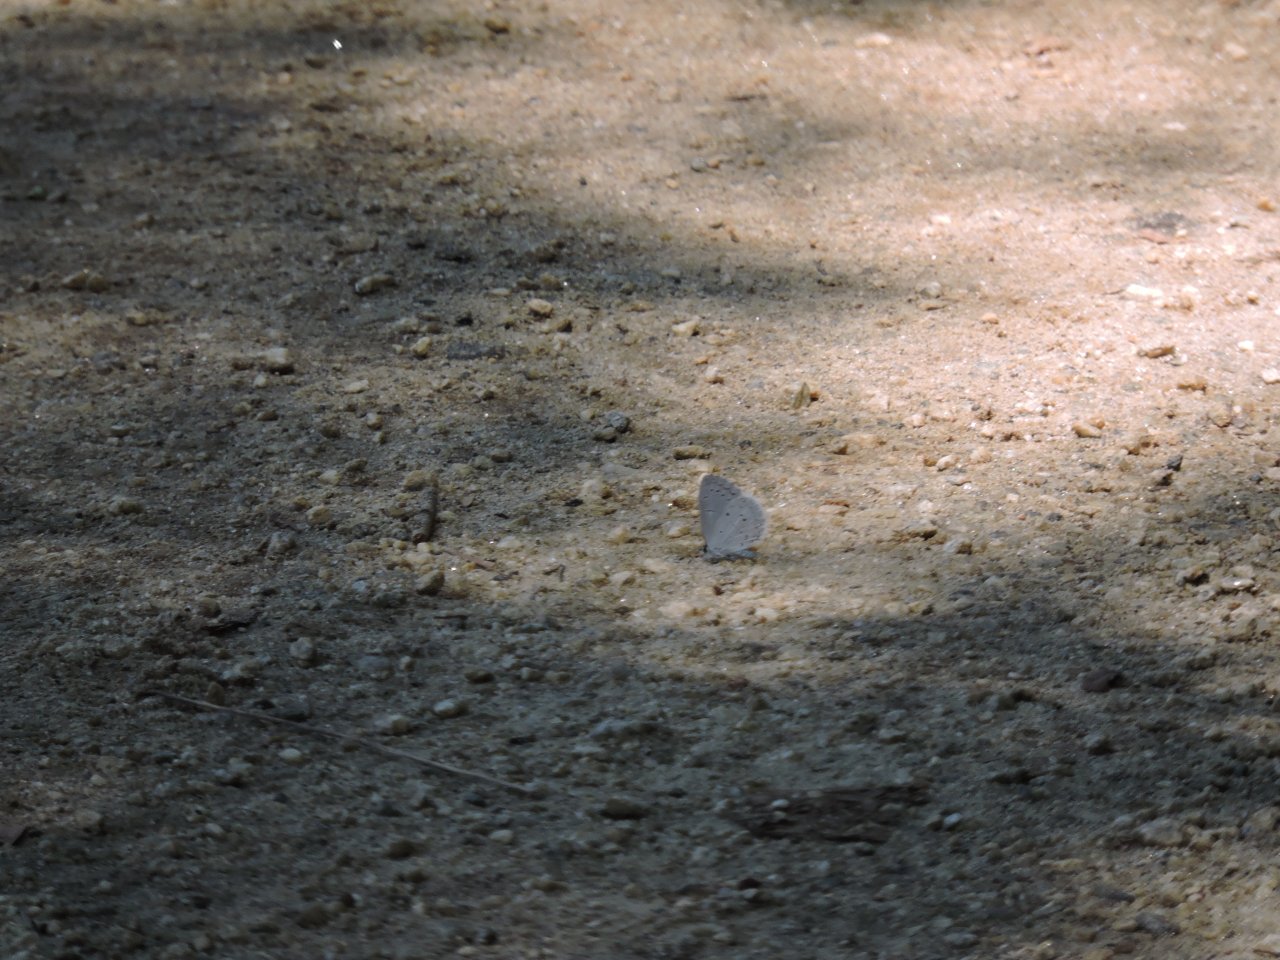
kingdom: Animalia
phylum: Arthropoda
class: Insecta
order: Lepidoptera
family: Lycaenidae
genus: Cyaniris
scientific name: Cyaniris neglecta
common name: Summer Azure
